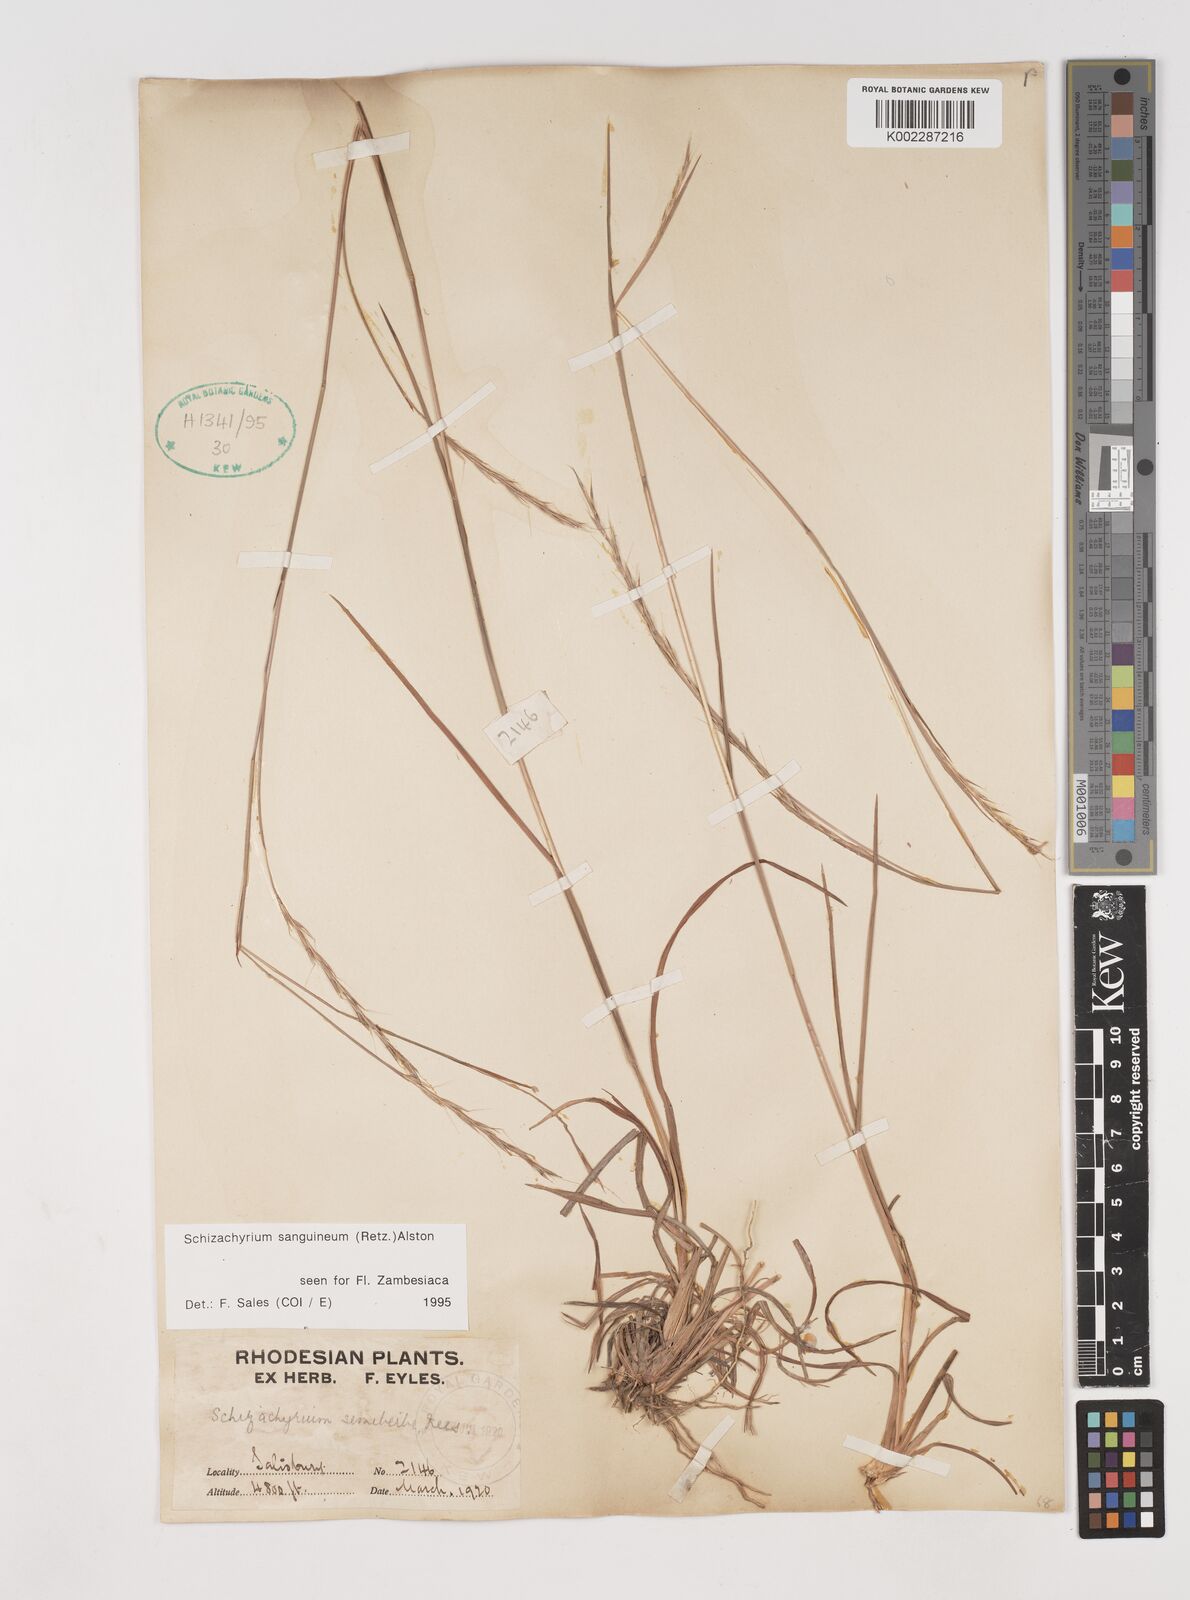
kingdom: Plantae
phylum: Tracheophyta
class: Liliopsida
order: Poales
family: Poaceae
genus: Schizachyrium
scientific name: Schizachyrium sanguineum
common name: Crimson bluestem
